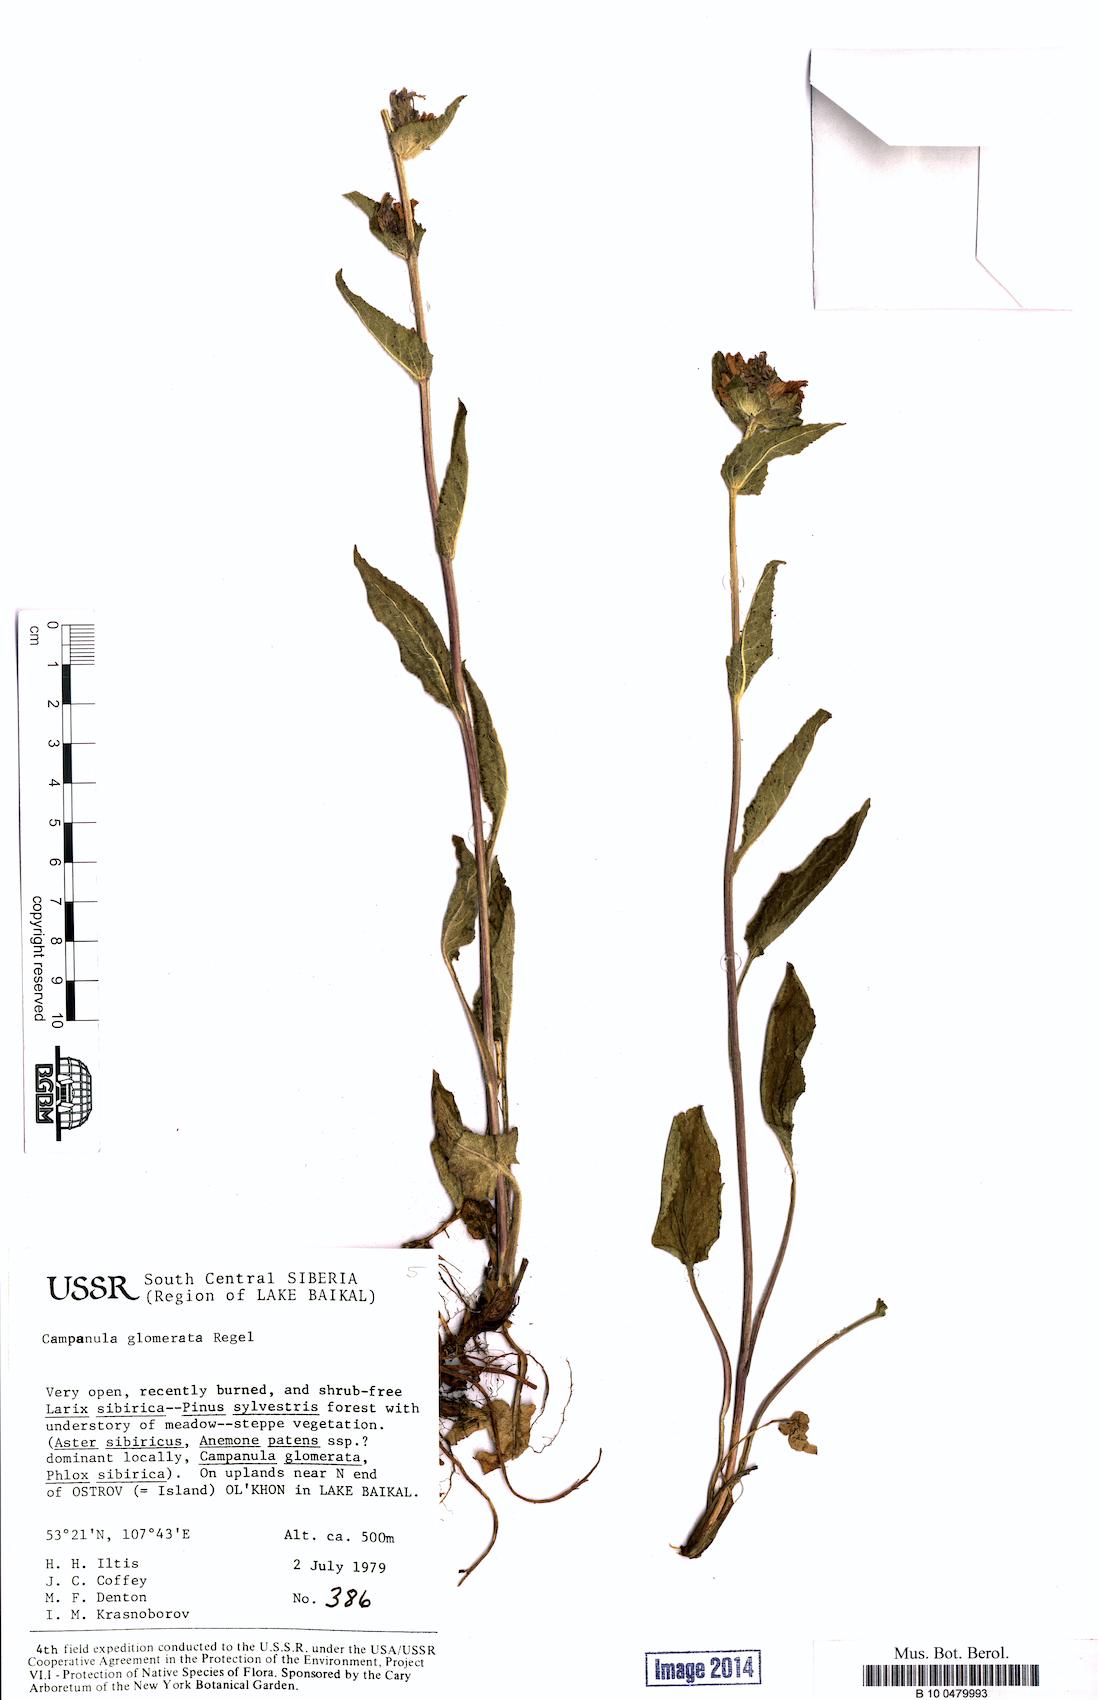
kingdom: Plantae
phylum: Tracheophyta
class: Magnoliopsida
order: Asterales
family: Campanulaceae
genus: Campanula
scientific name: Campanula glomerata
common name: Clustered bellflower
